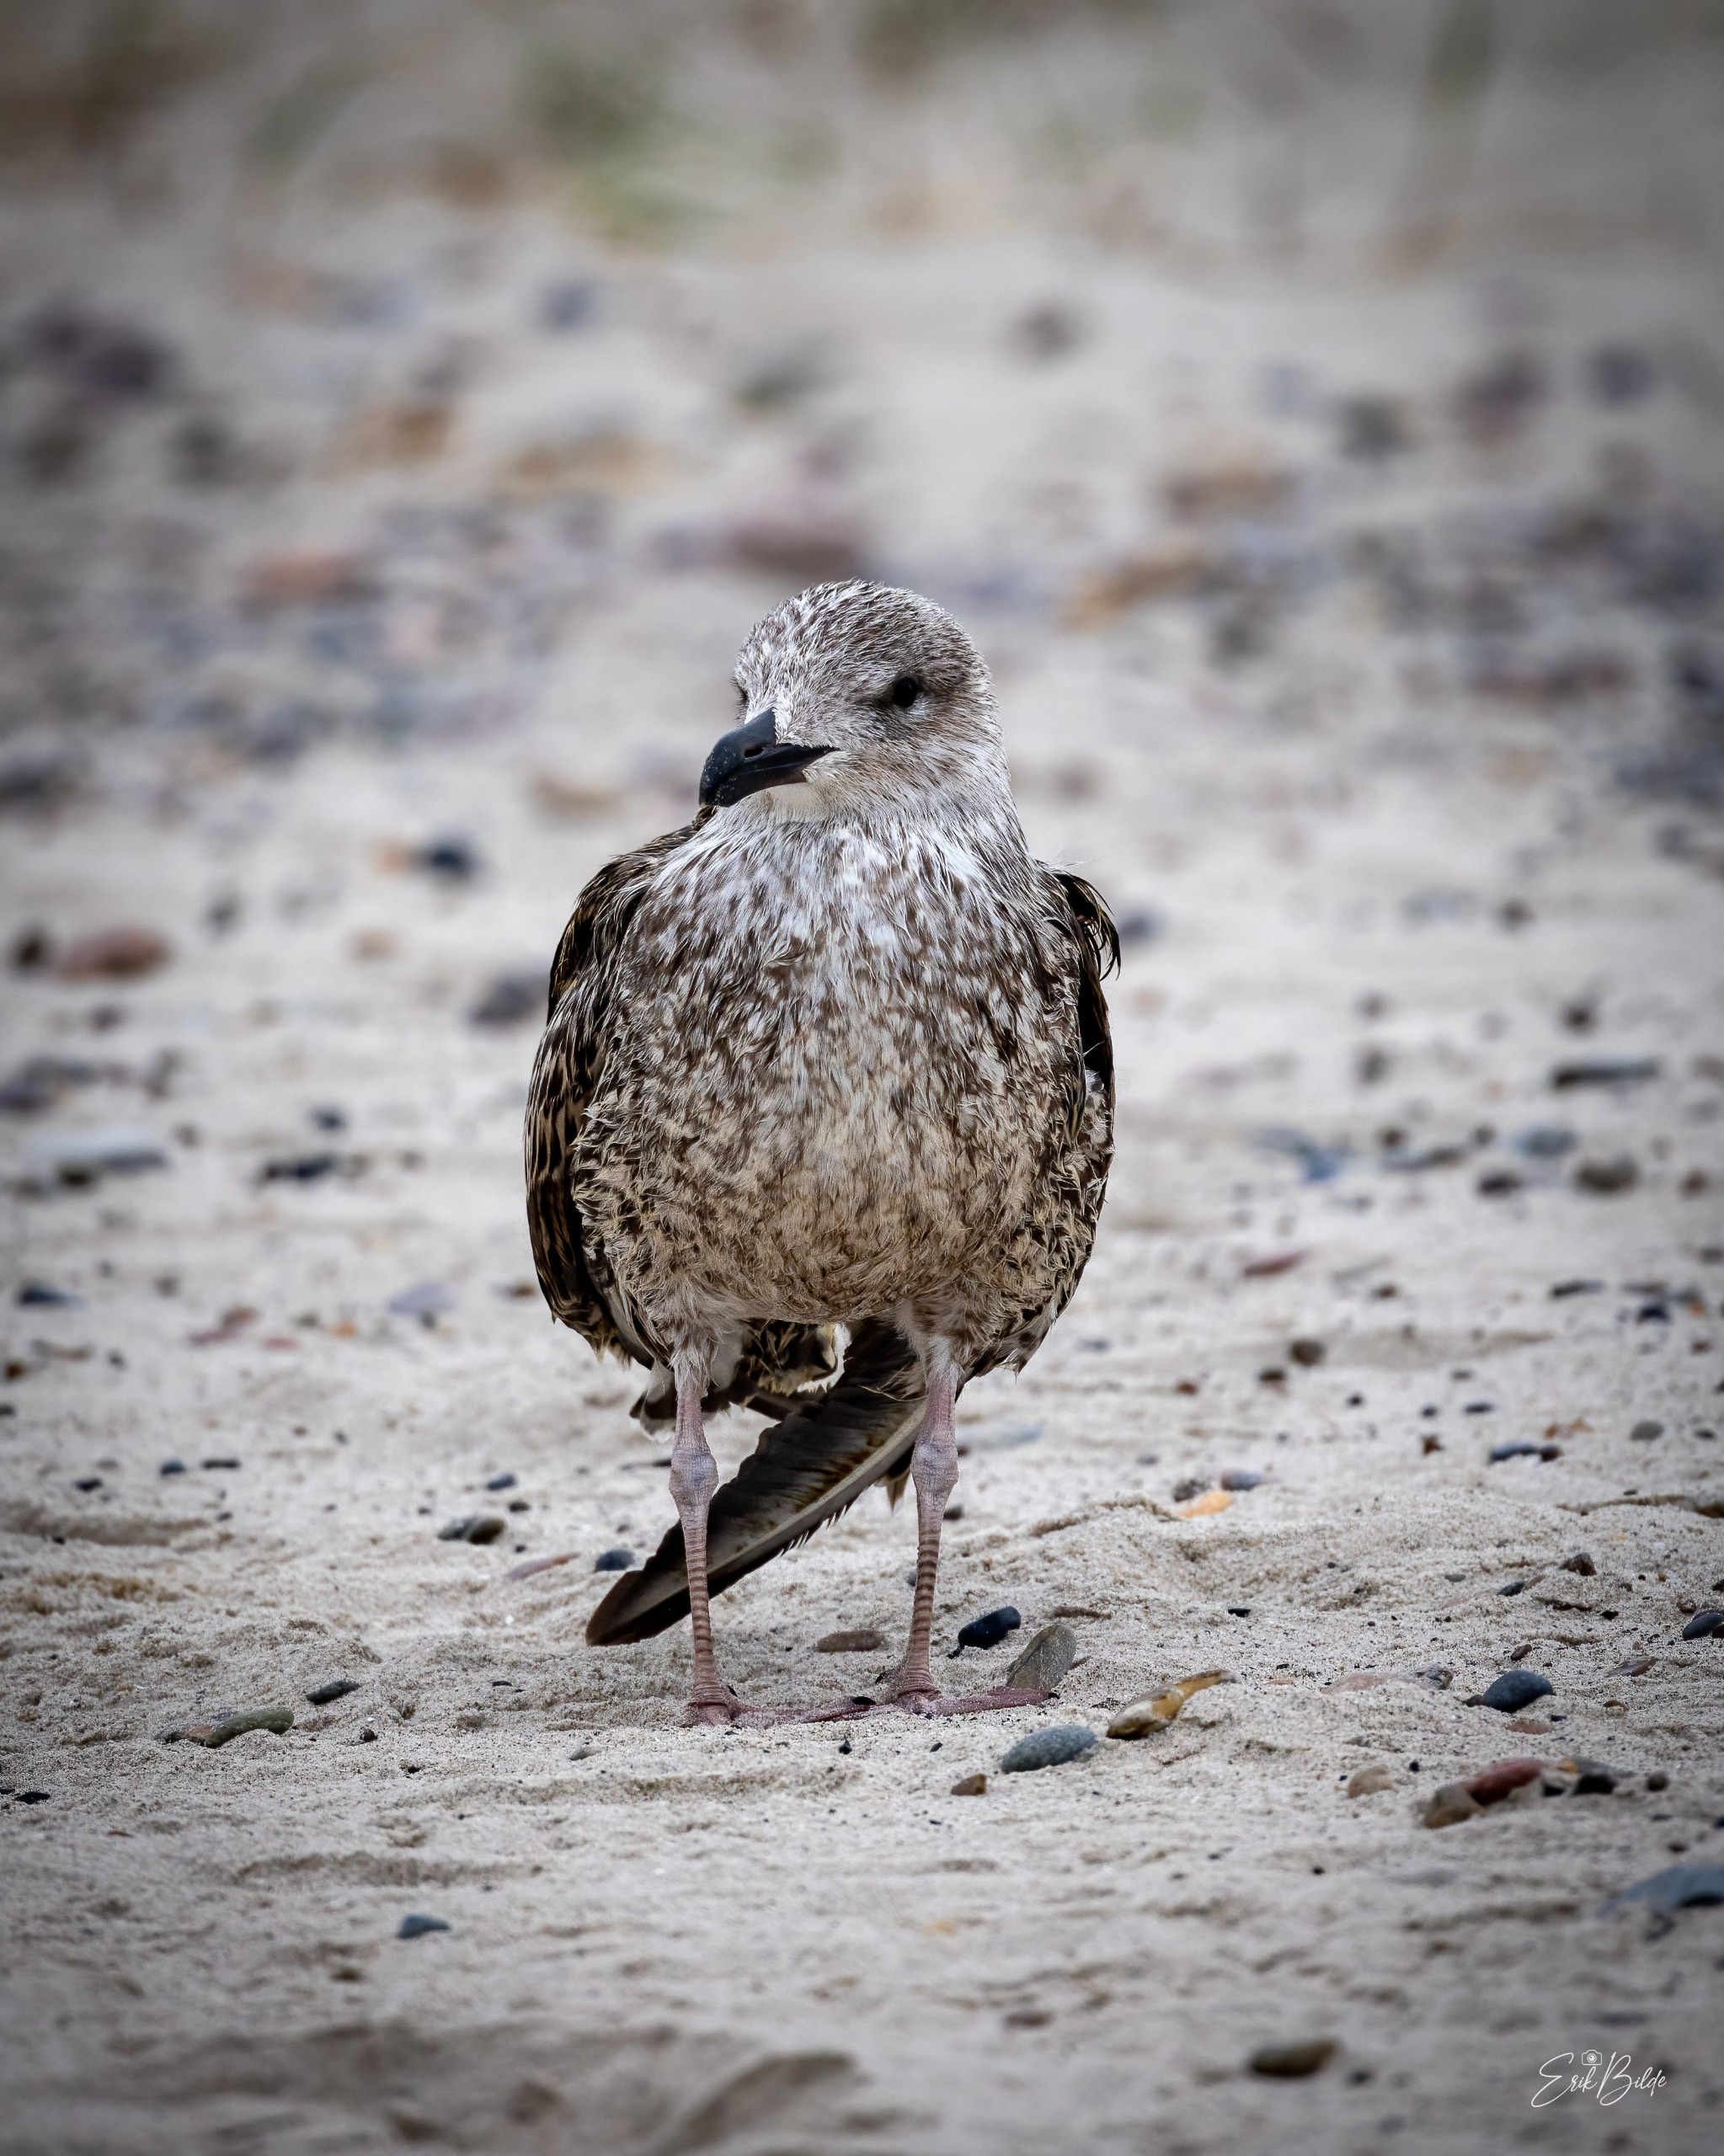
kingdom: Animalia
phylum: Chordata
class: Aves
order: Charadriiformes
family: Laridae
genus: Larus
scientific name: Larus fuscus
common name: Sildemåge
